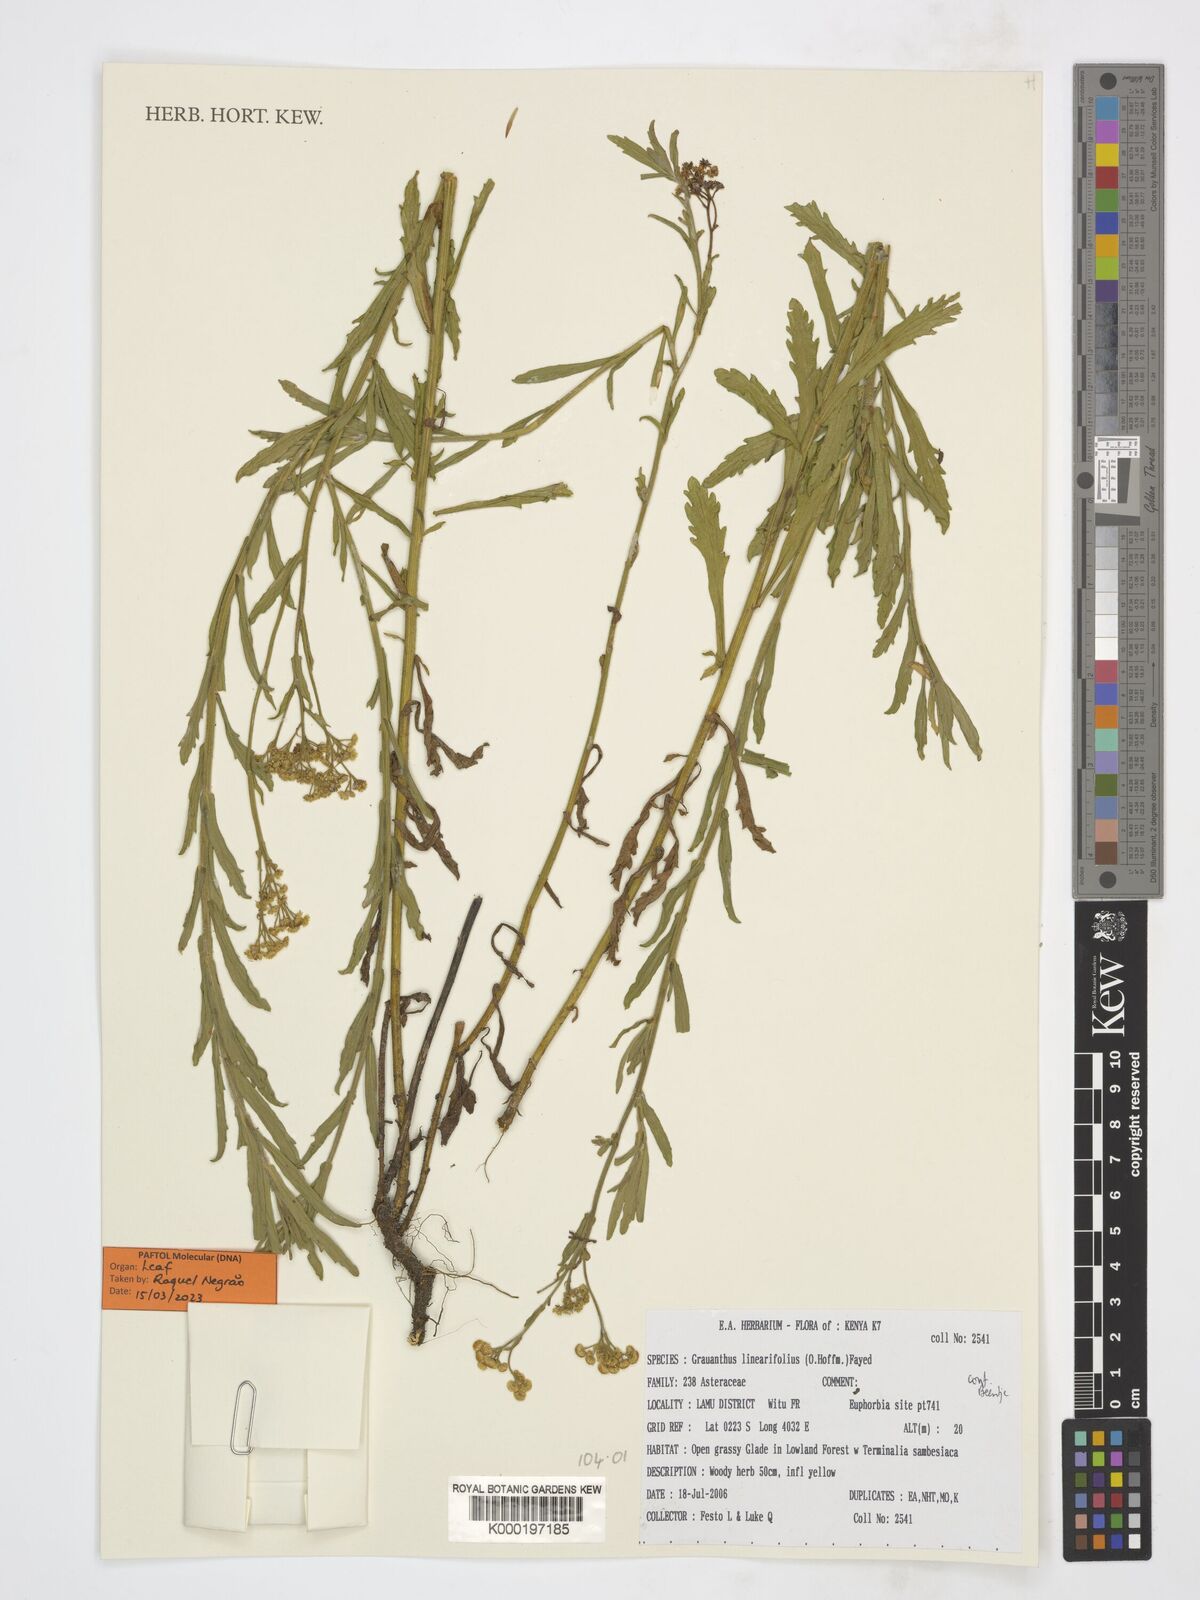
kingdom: Plantae
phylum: Tracheophyta
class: Magnoliopsida
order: Asterales
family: Asteraceae
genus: Grauanthus
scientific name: Grauanthus linearifolius
